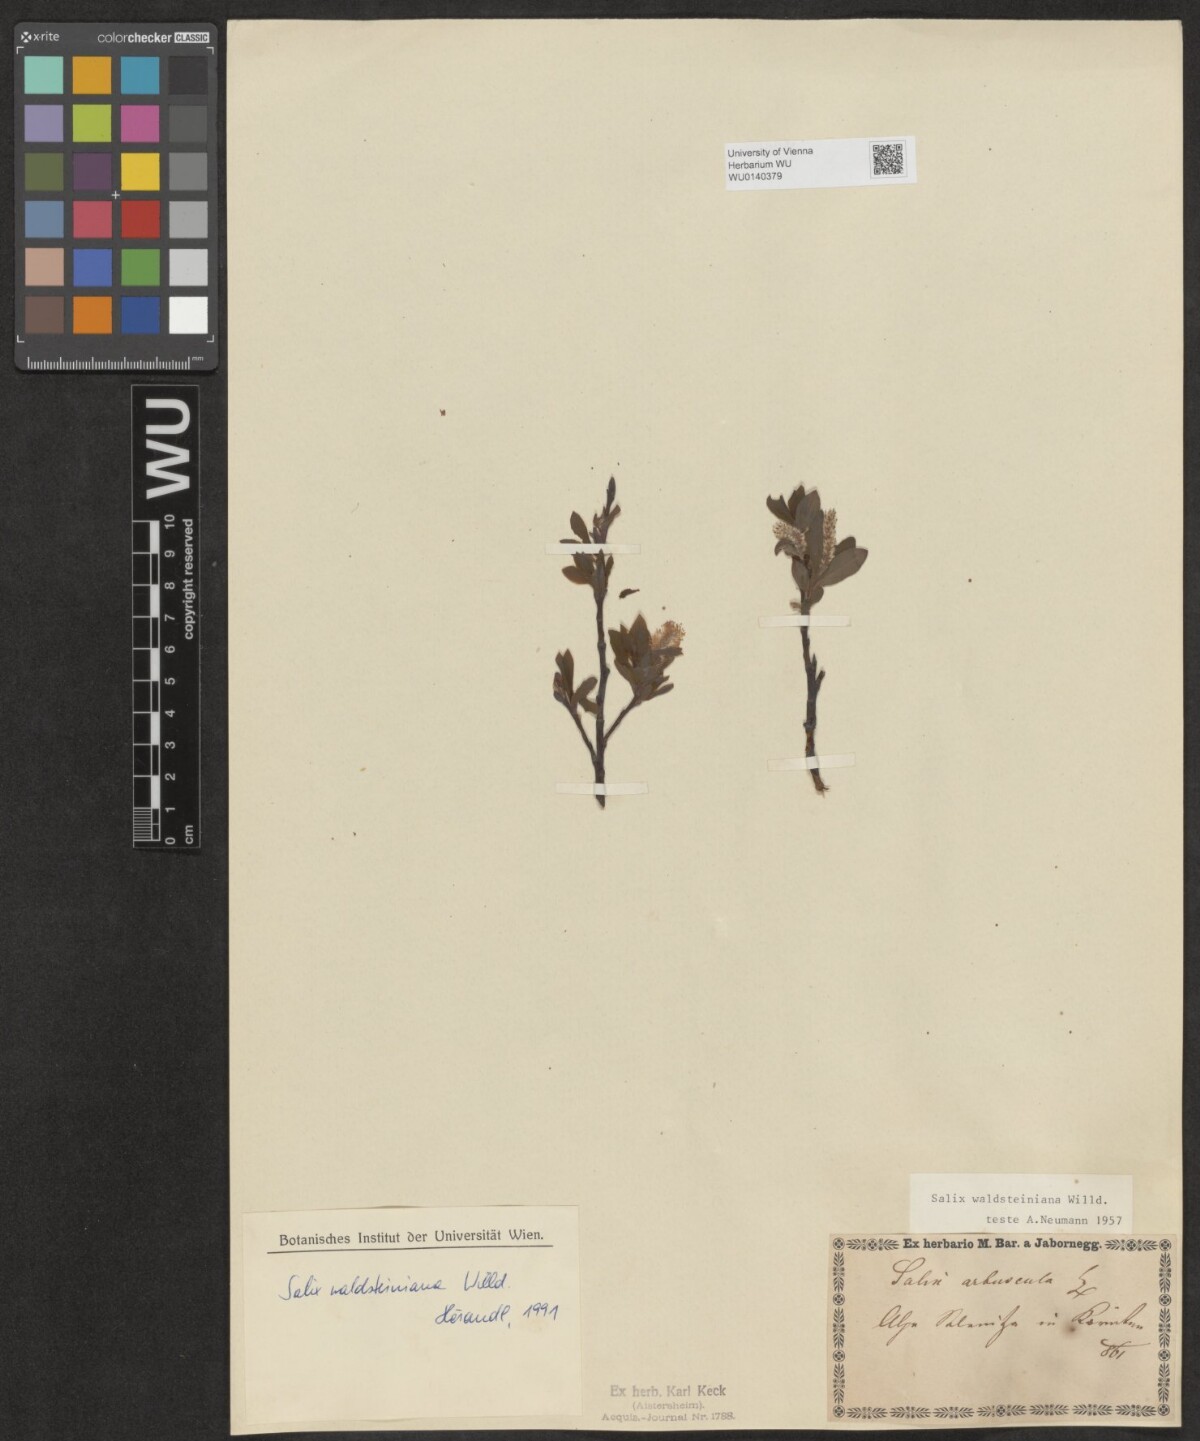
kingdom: Plantae
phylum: Tracheophyta
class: Magnoliopsida
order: Malpighiales
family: Salicaceae
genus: Salix
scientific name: Salix waldsteiniana
